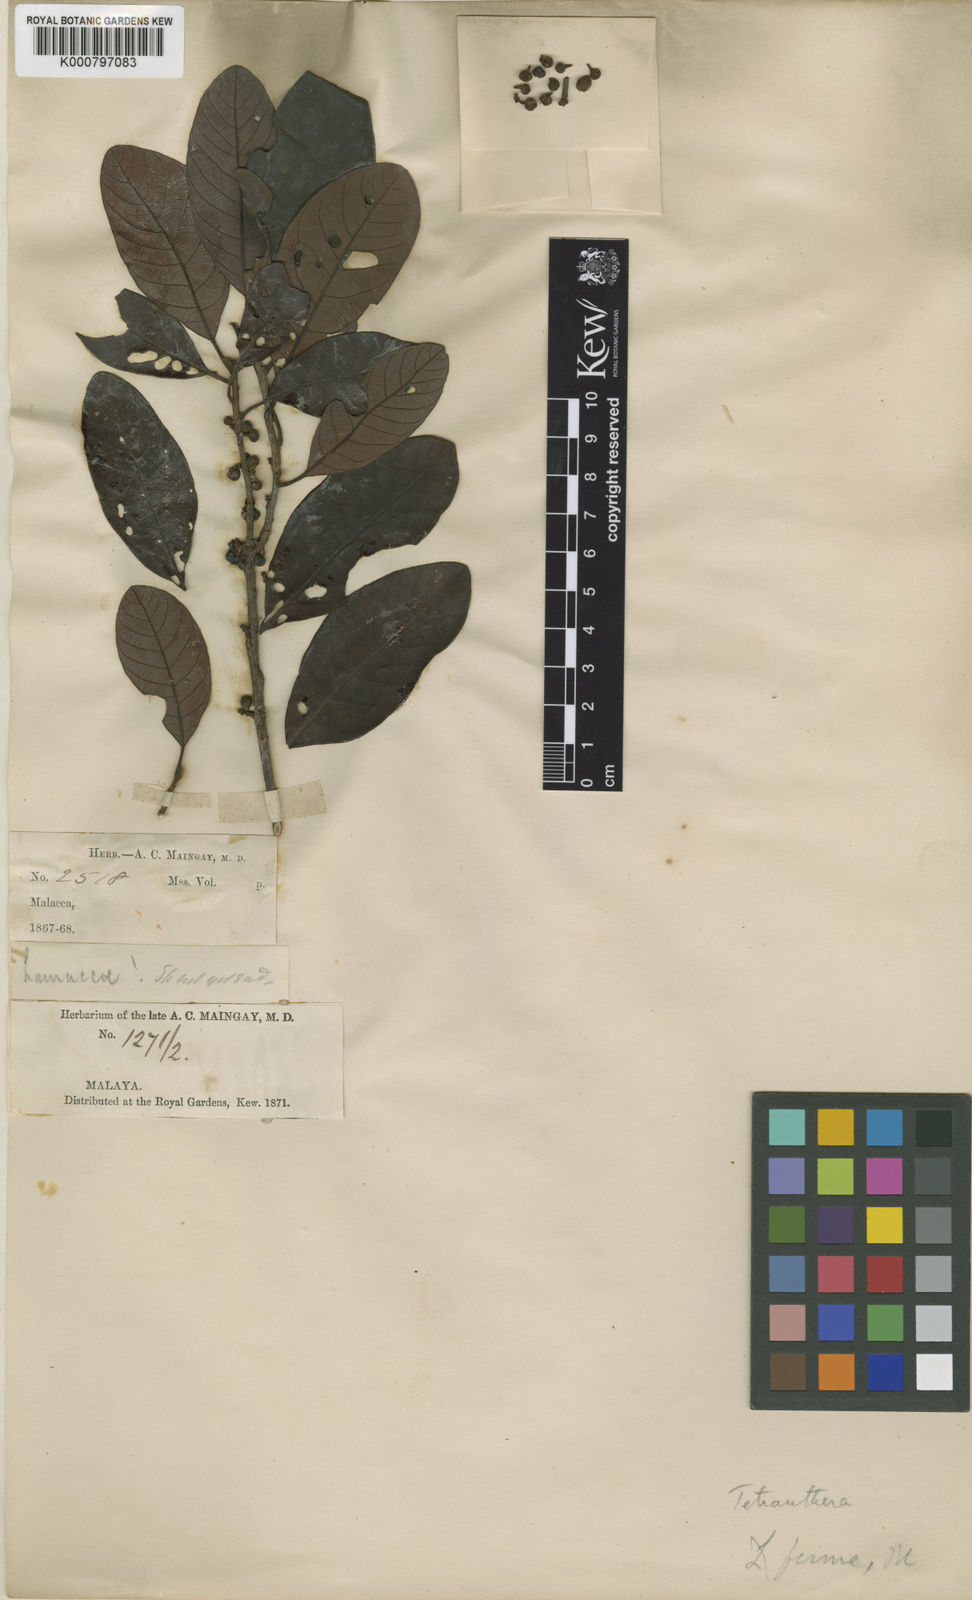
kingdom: Plantae
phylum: Tracheophyta
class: Magnoliopsida
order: Laurales
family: Lauraceae
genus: Litsea
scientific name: Litsea firma
